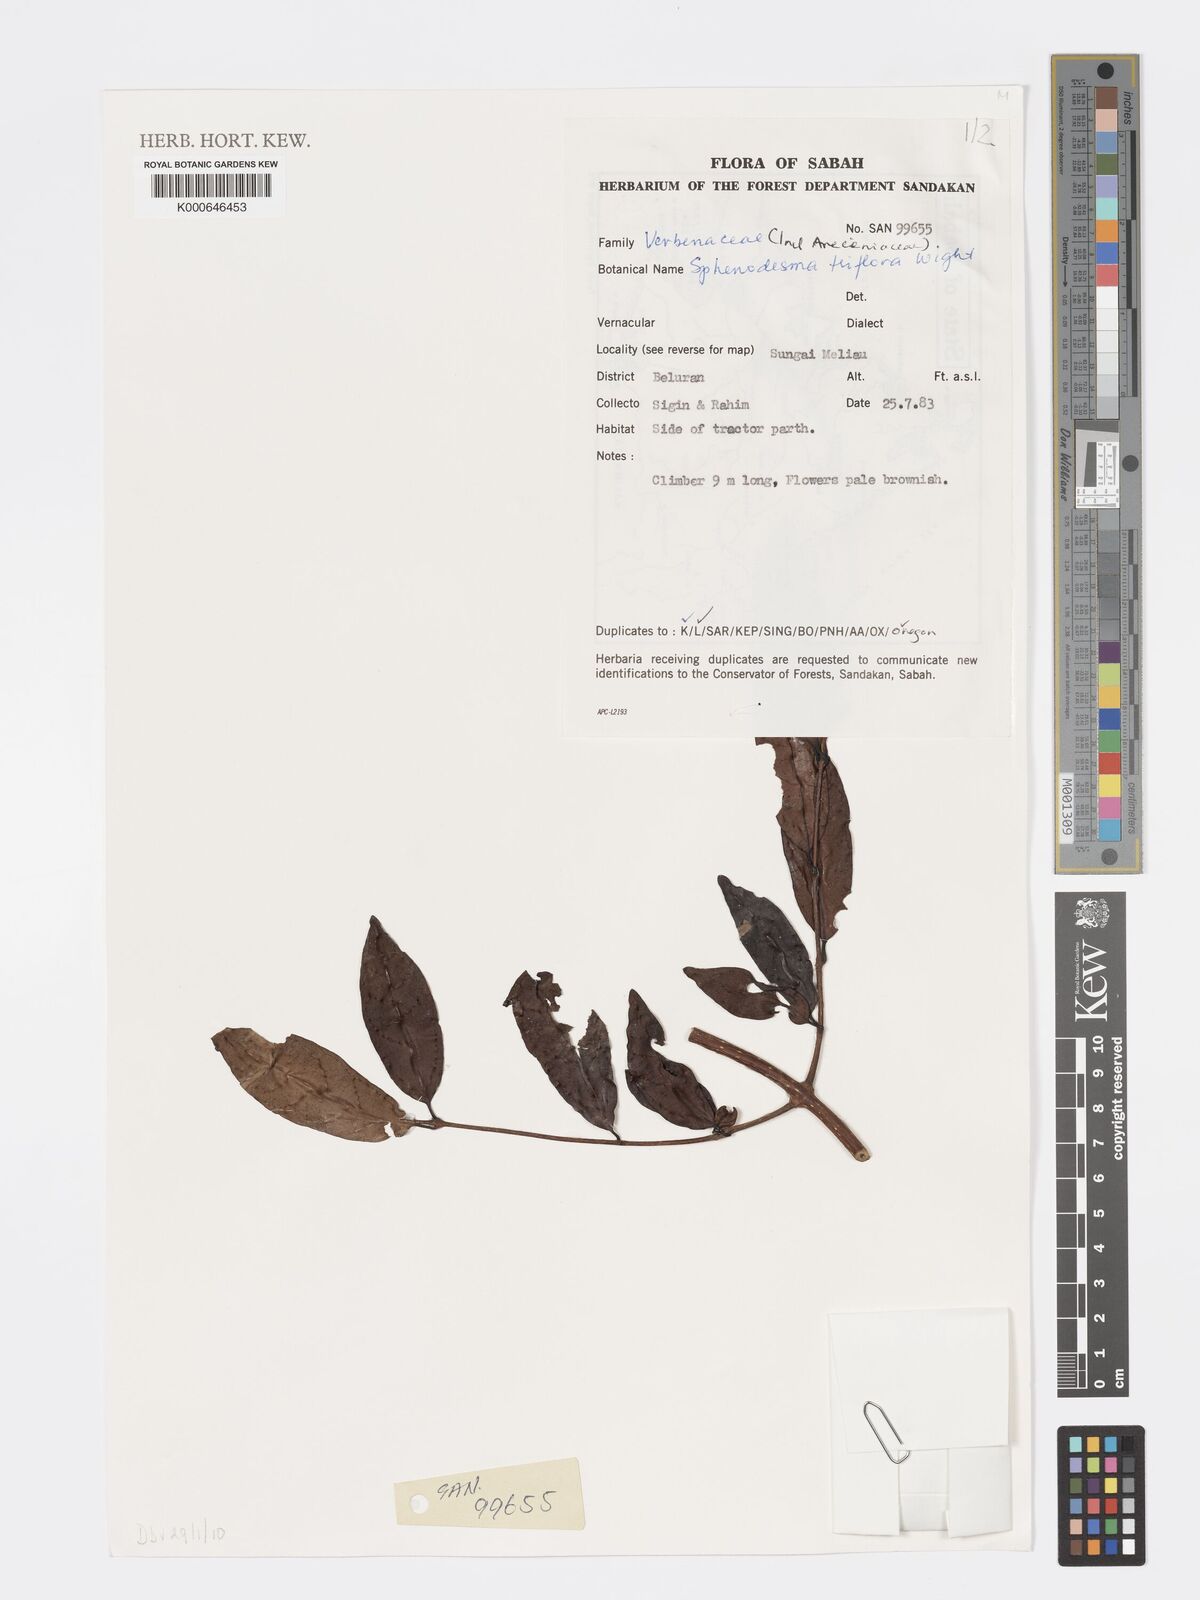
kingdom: Plantae
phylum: Tracheophyta
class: Magnoliopsida
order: Lamiales
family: Lamiaceae
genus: Sphenodesme
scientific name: Sphenodesme
